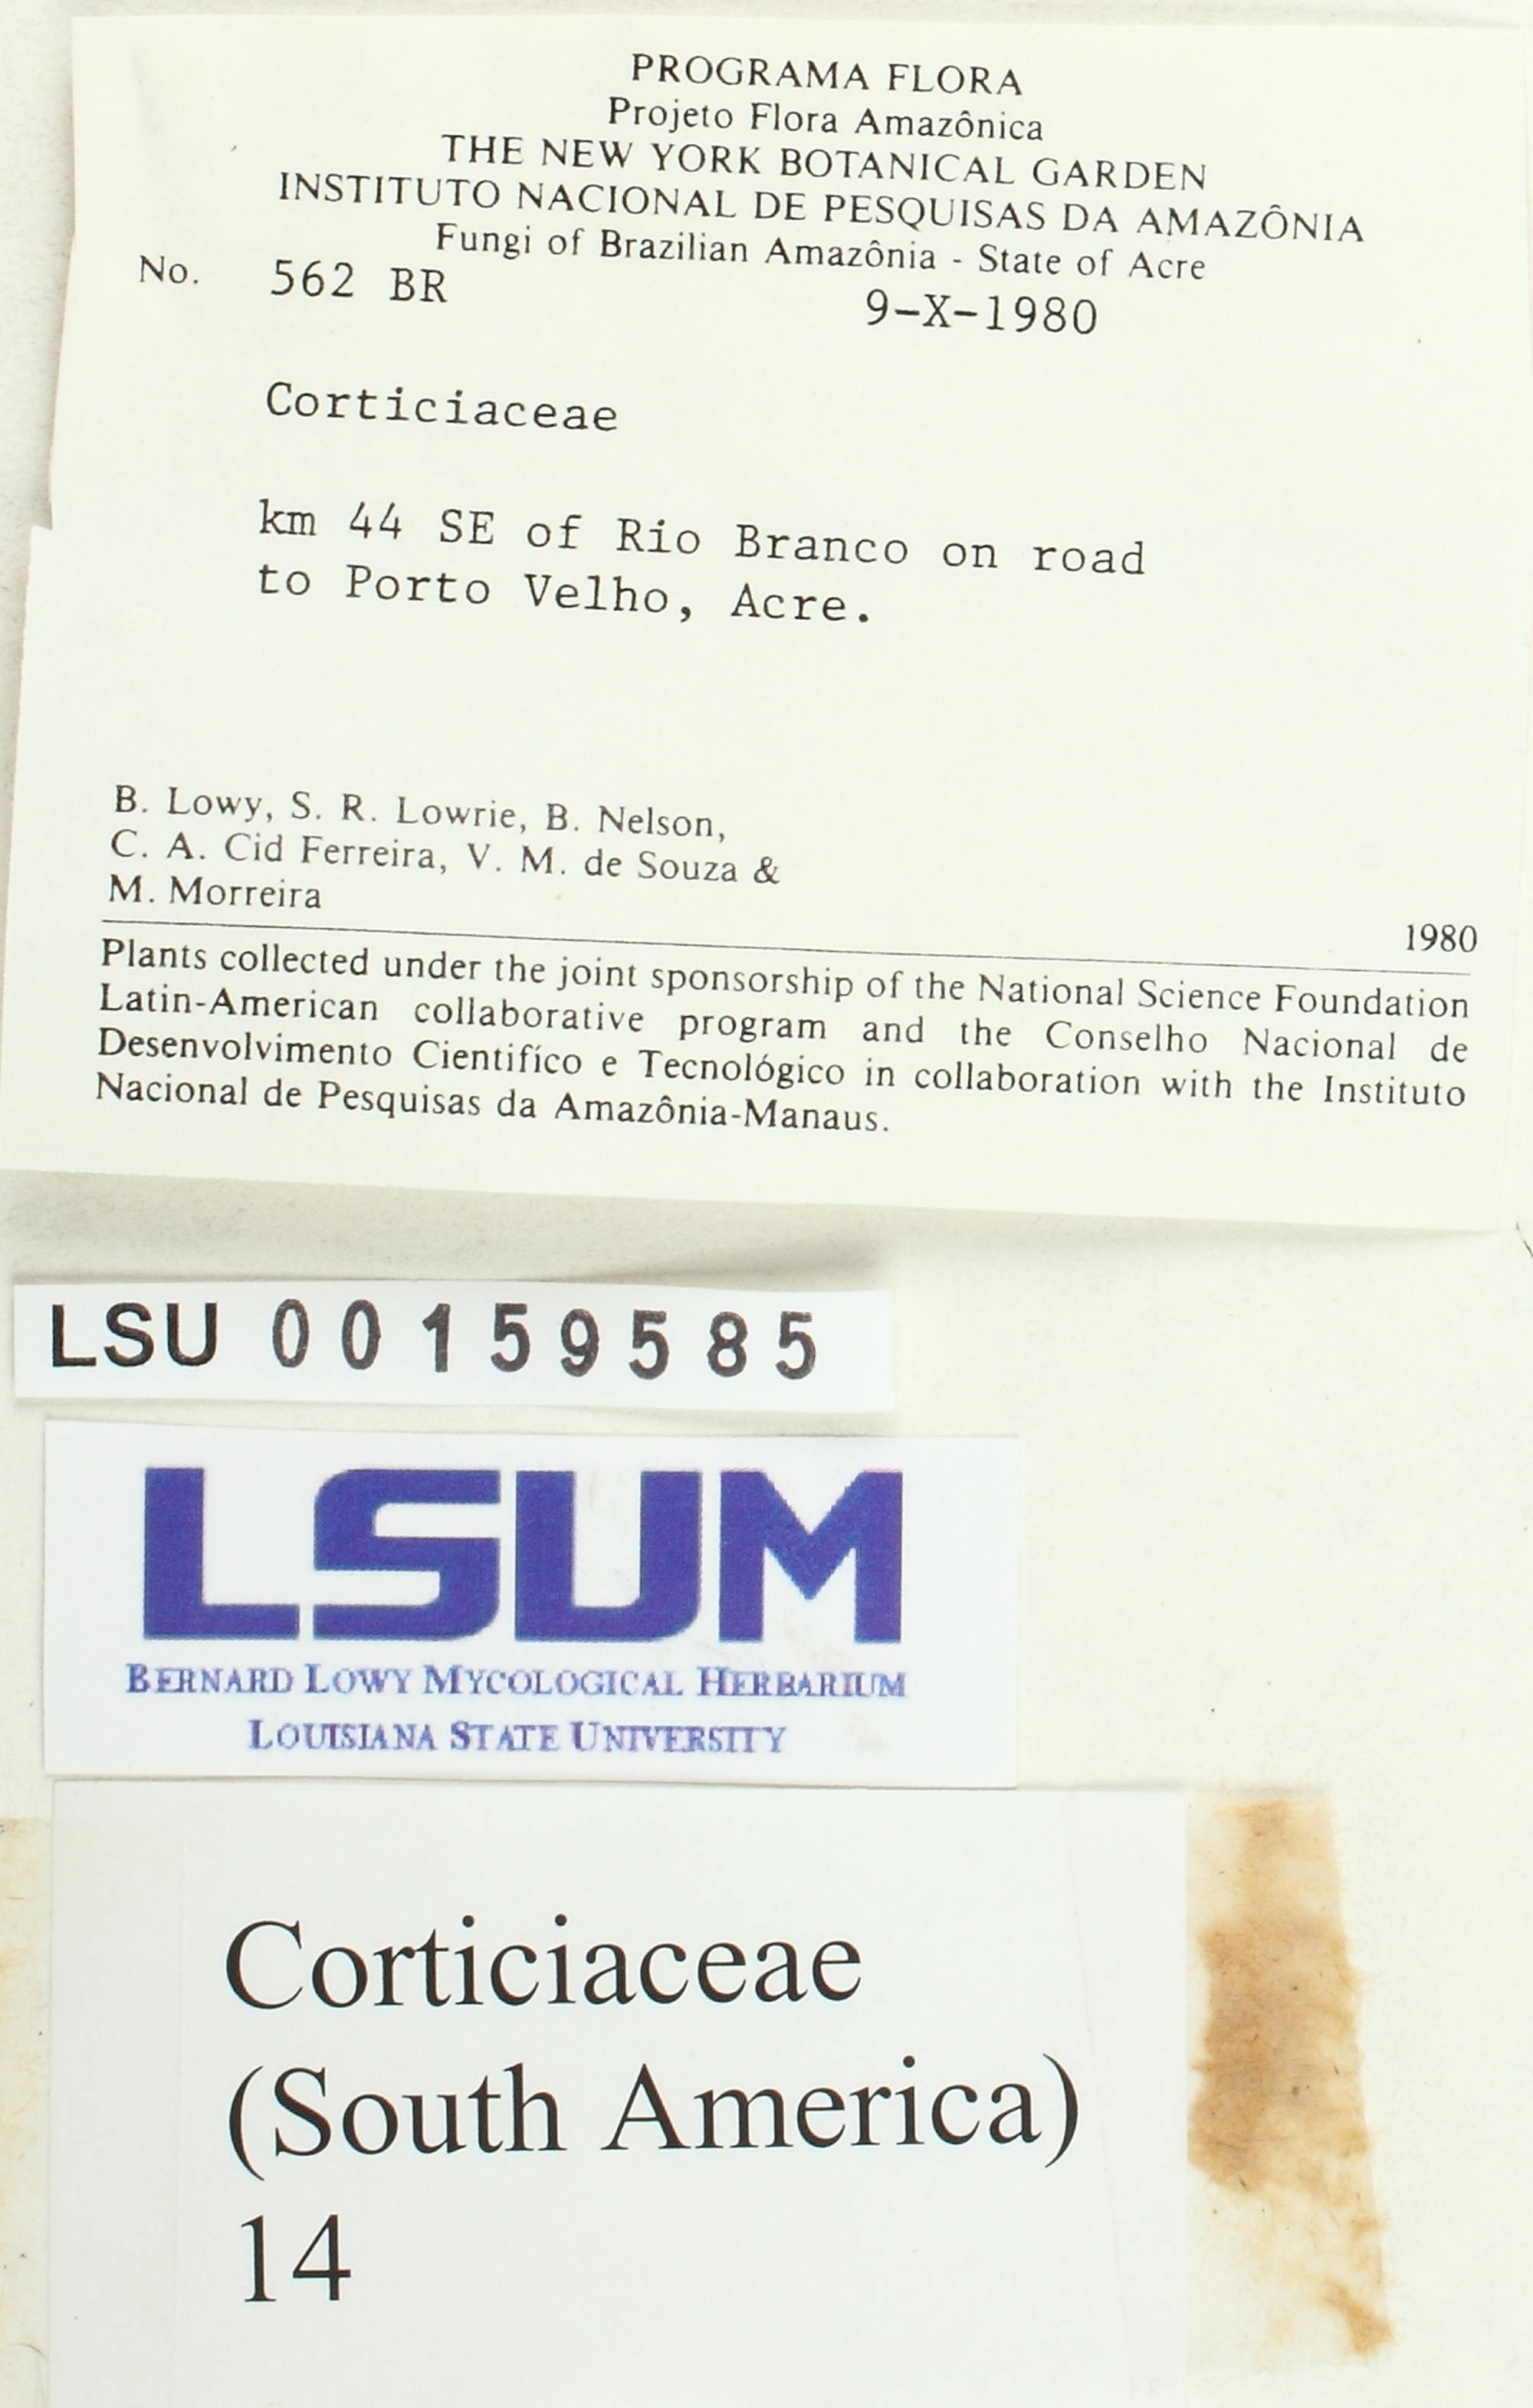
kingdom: Fungi
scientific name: Fungi
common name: Fungi
